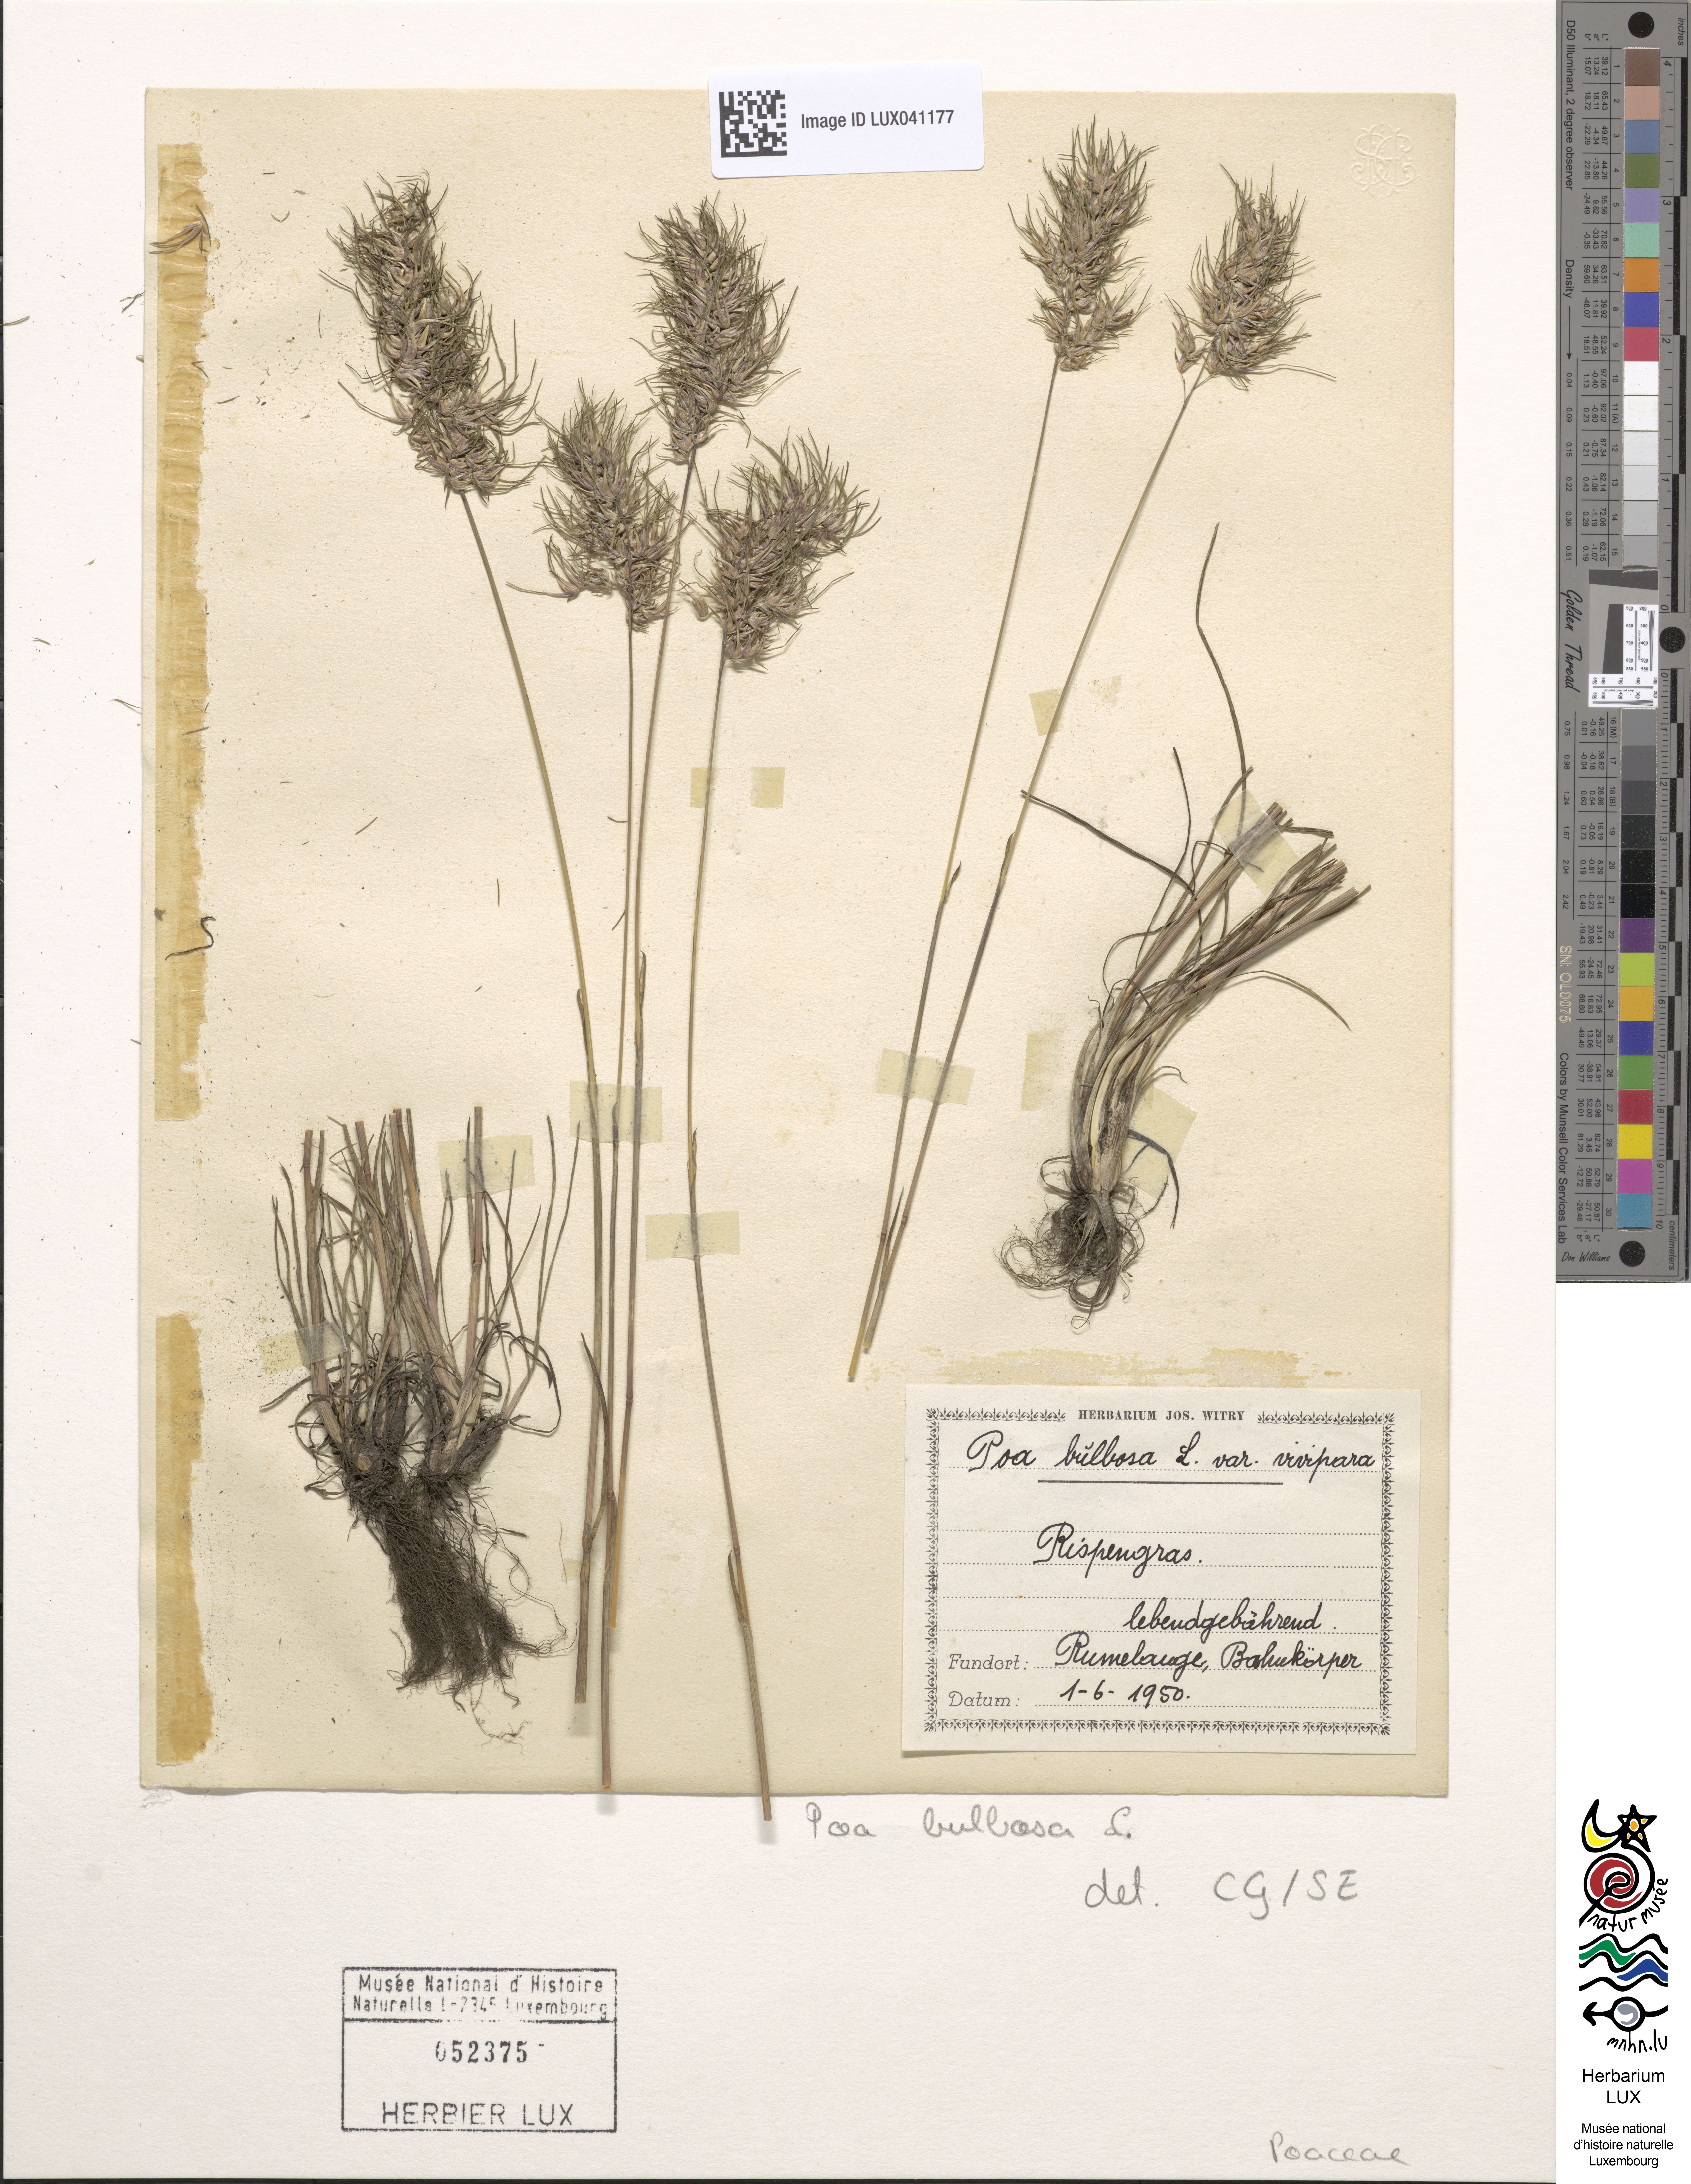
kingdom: Plantae
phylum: Tracheophyta
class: Liliopsida
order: Poales
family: Poaceae
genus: Poa
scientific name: Poa bulbosa
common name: Bulbous bluegrass
